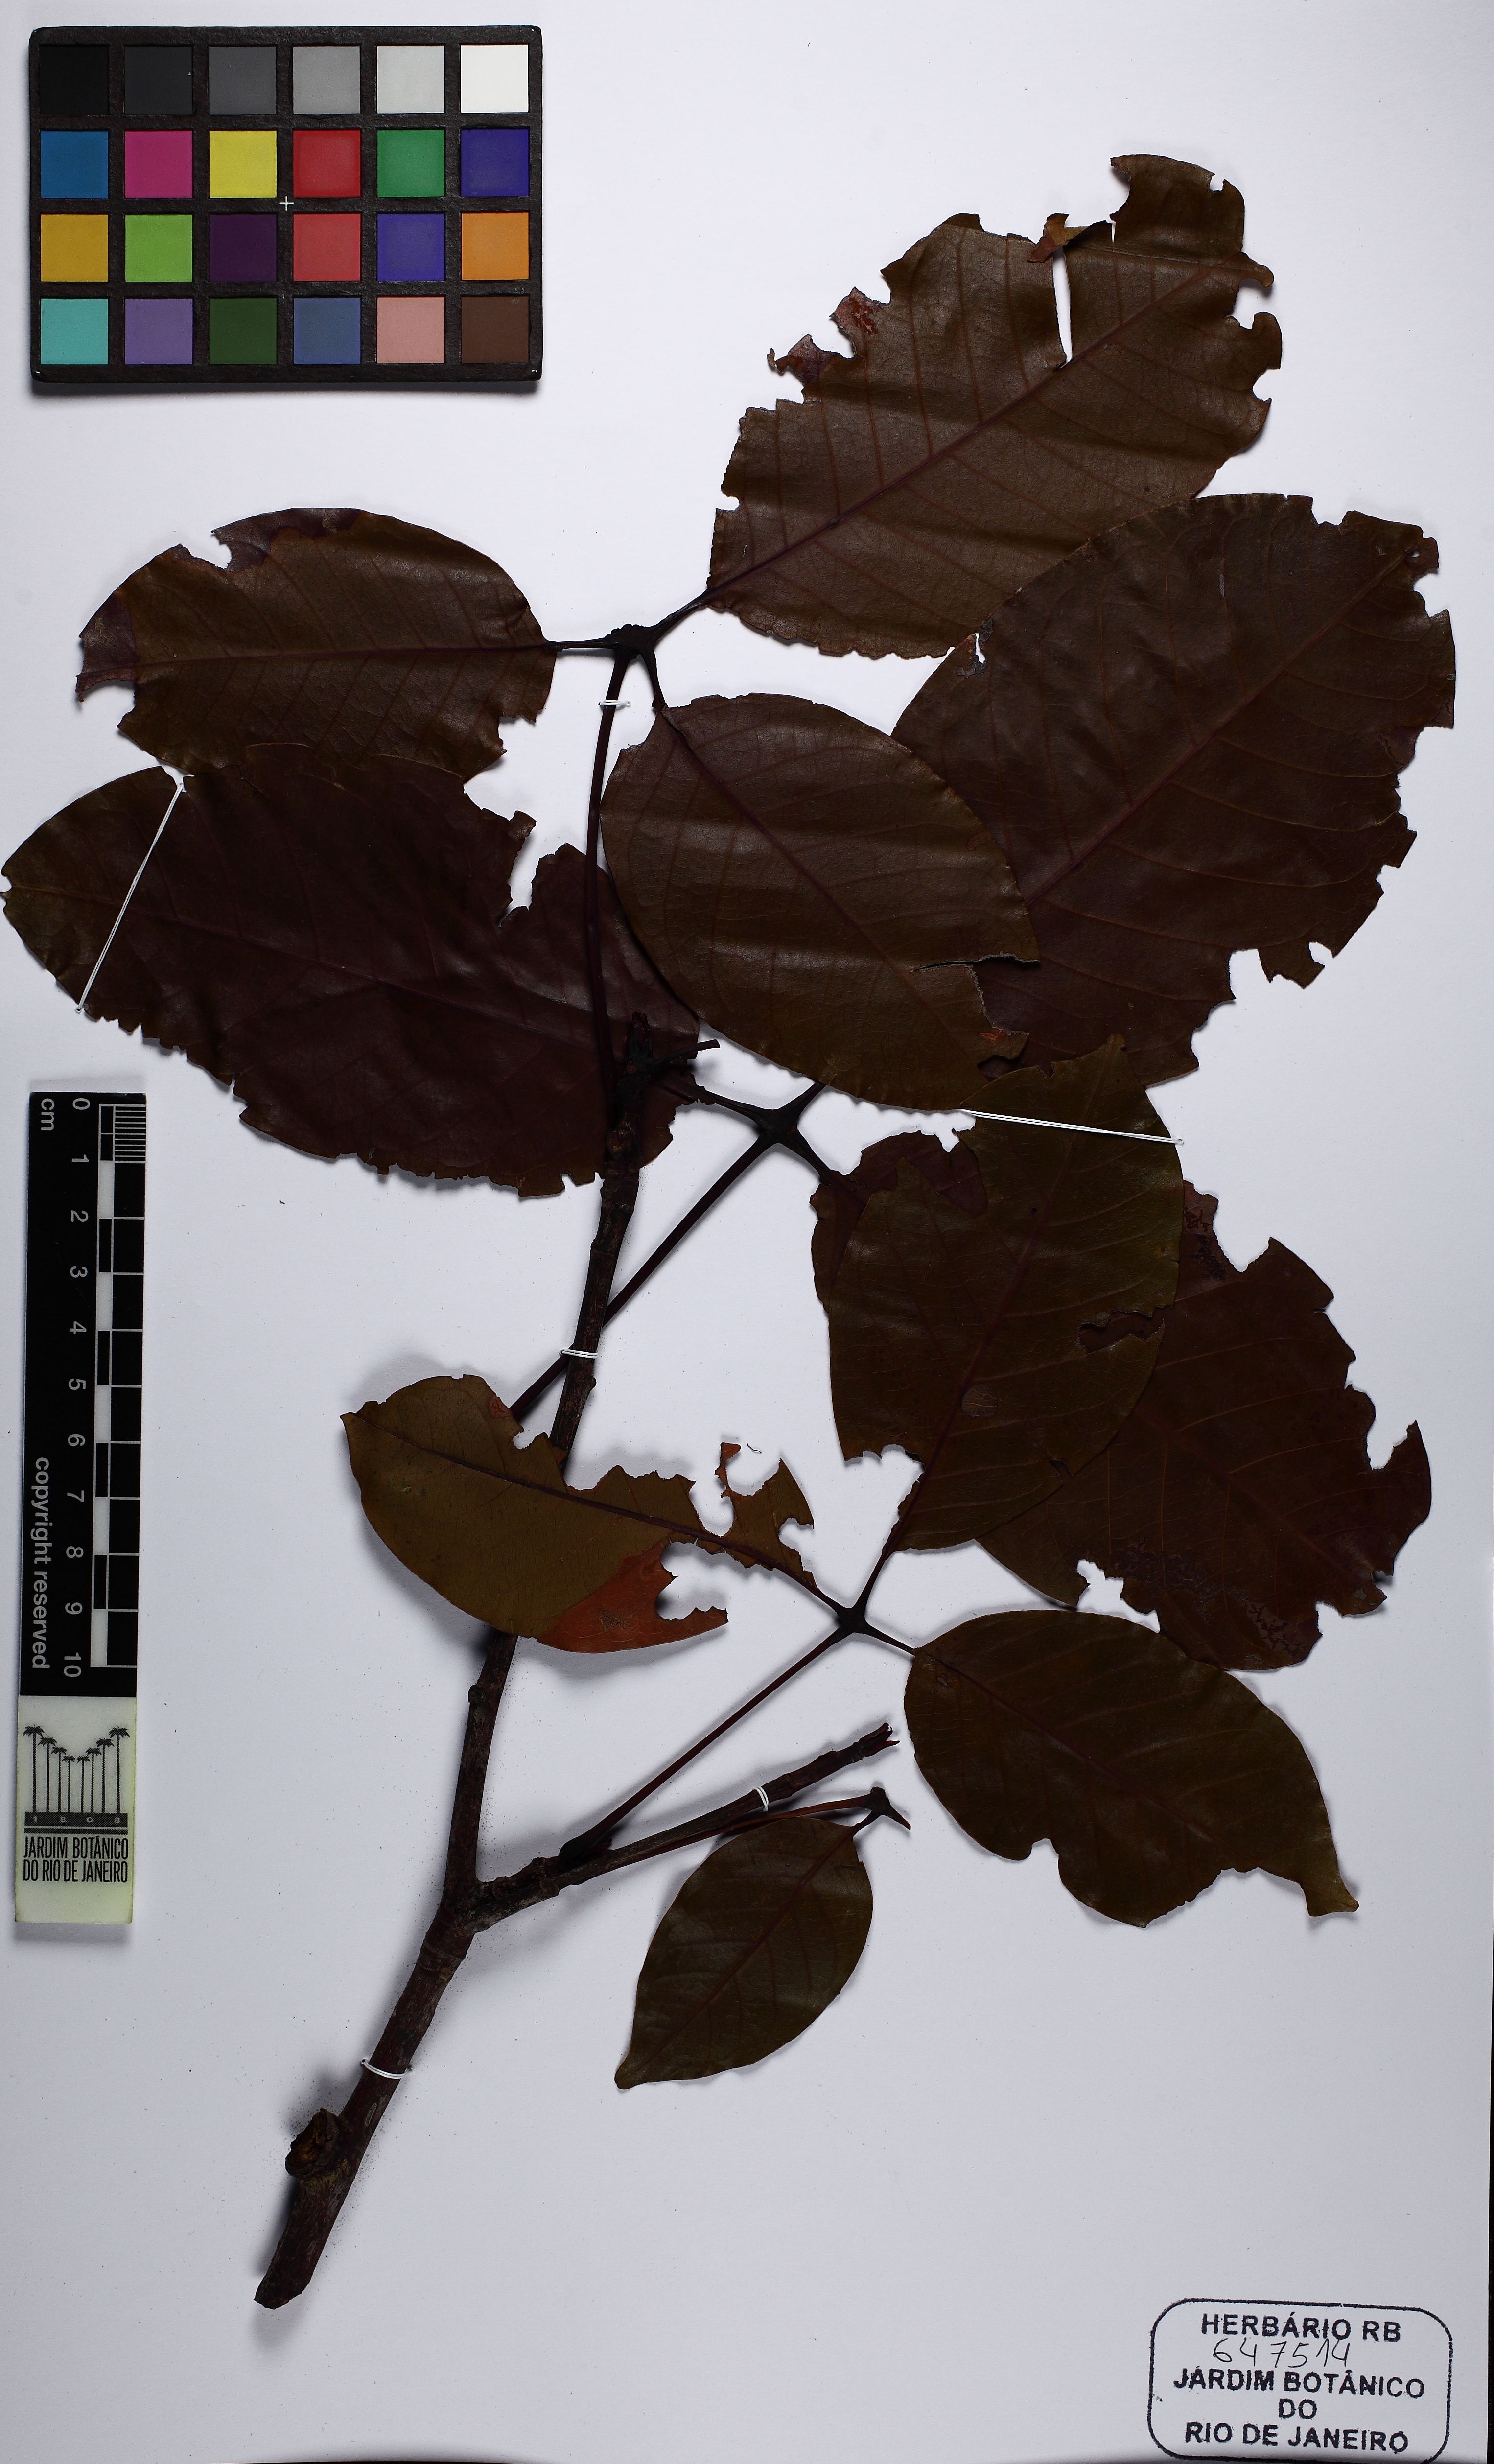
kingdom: Plantae
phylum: Tracheophyta
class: Magnoliopsida
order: Malvales
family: Malvaceae
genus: Pseudobombax
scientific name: Pseudobombax crassipes
